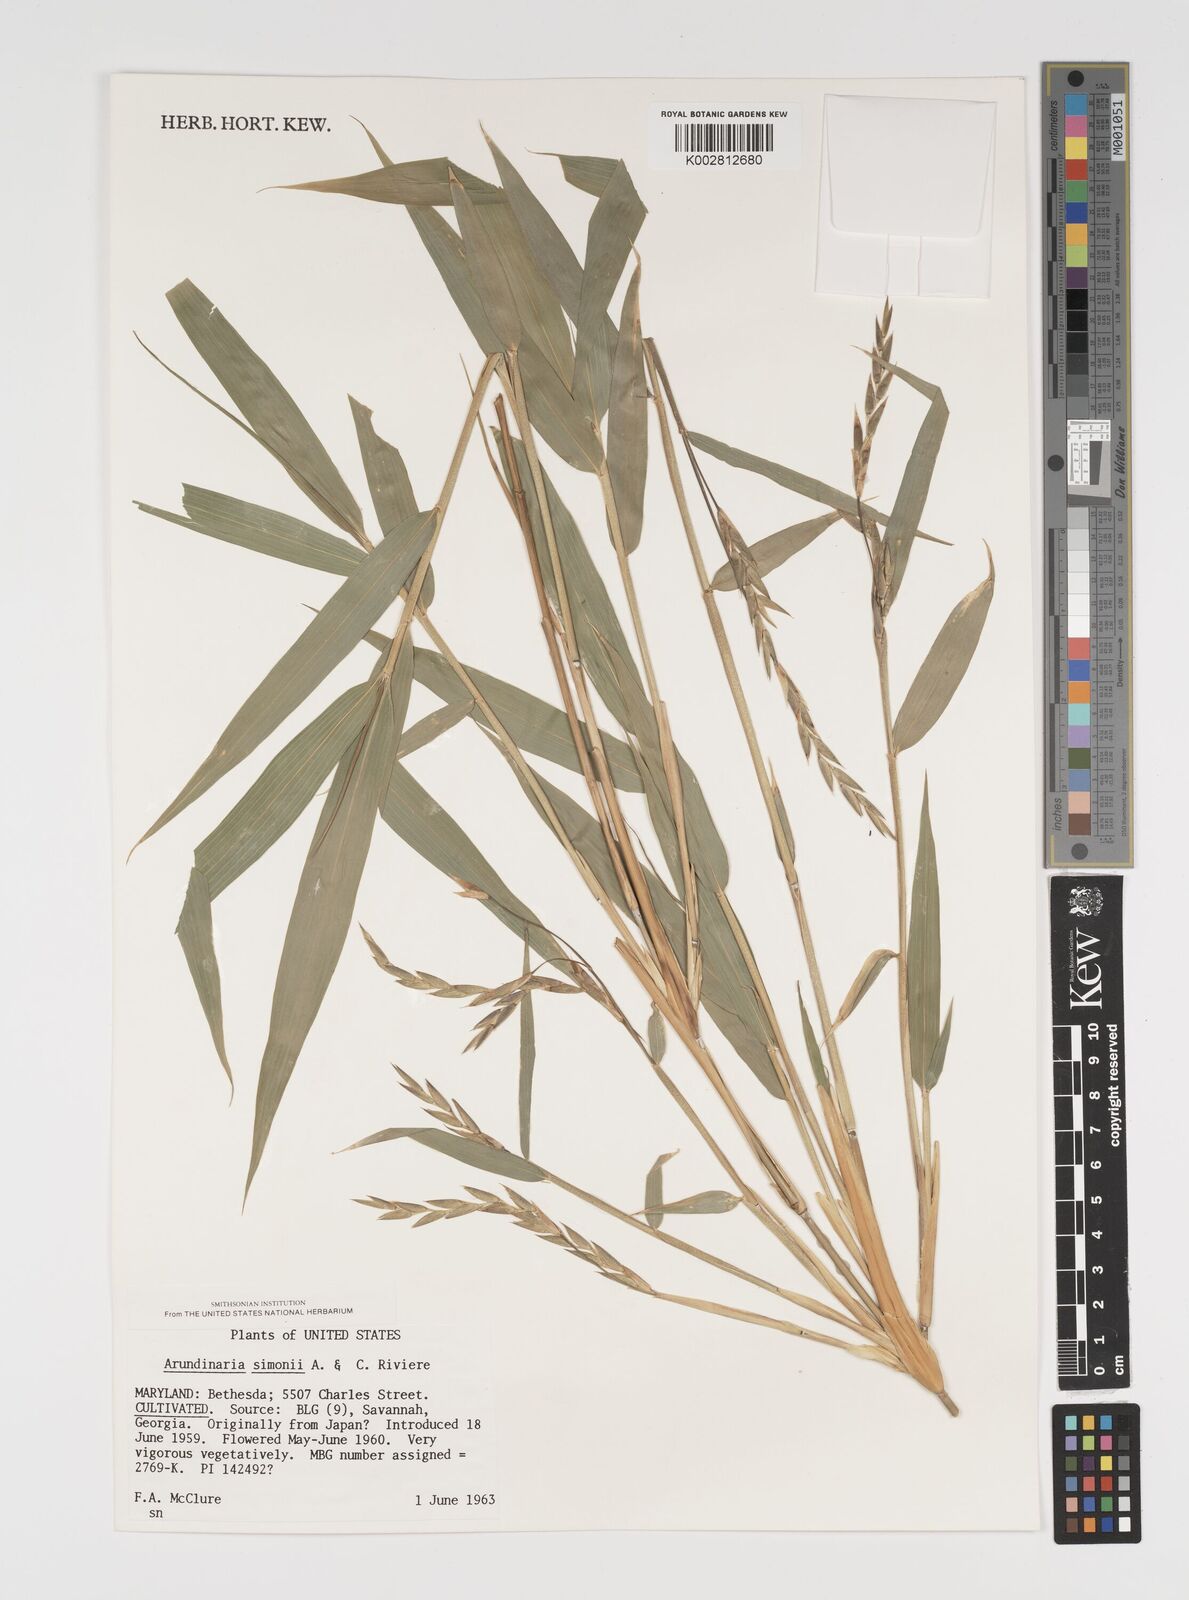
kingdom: Plantae
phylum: Tracheophyta
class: Liliopsida
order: Poales
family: Poaceae
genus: Pleioblastus
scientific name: Pleioblastus simonii
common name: Simon bamboo
